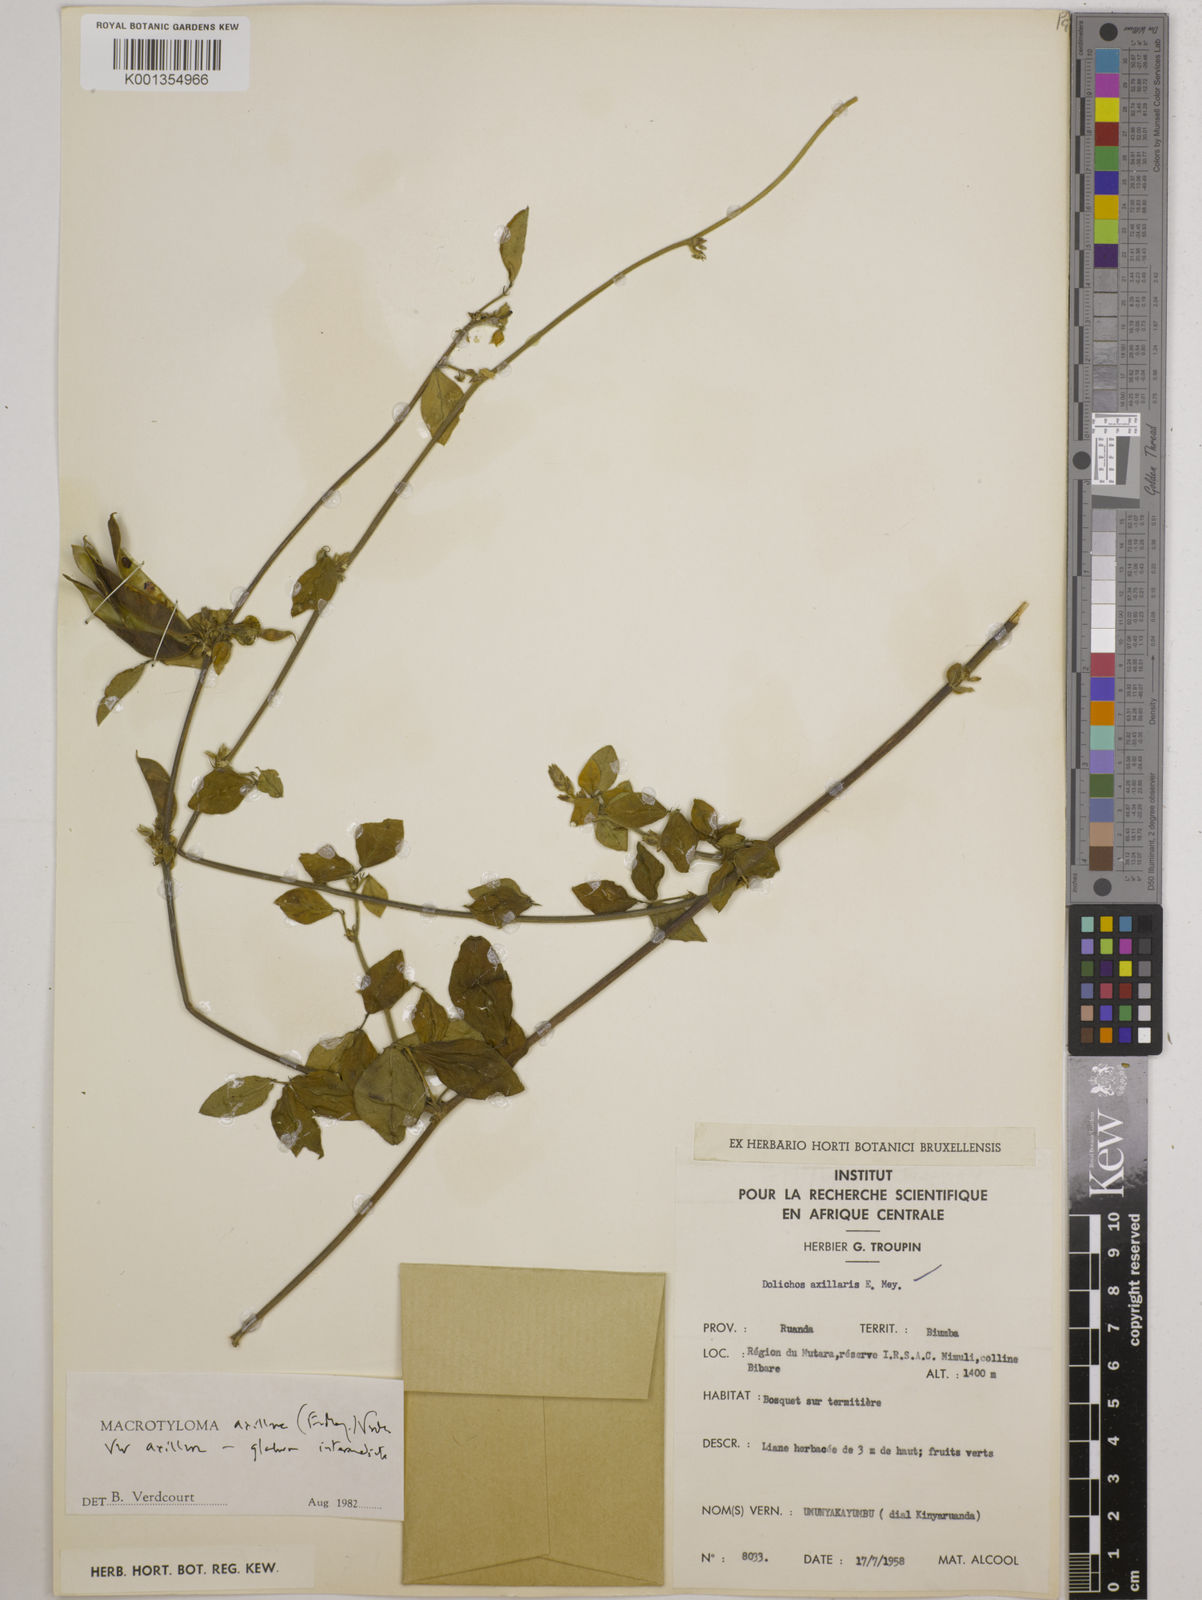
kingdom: Plantae
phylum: Tracheophyta
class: Magnoliopsida
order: Fabales
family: Fabaceae
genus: Macrotyloma
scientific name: Macrotyloma axillare
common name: Perennial horsegram
